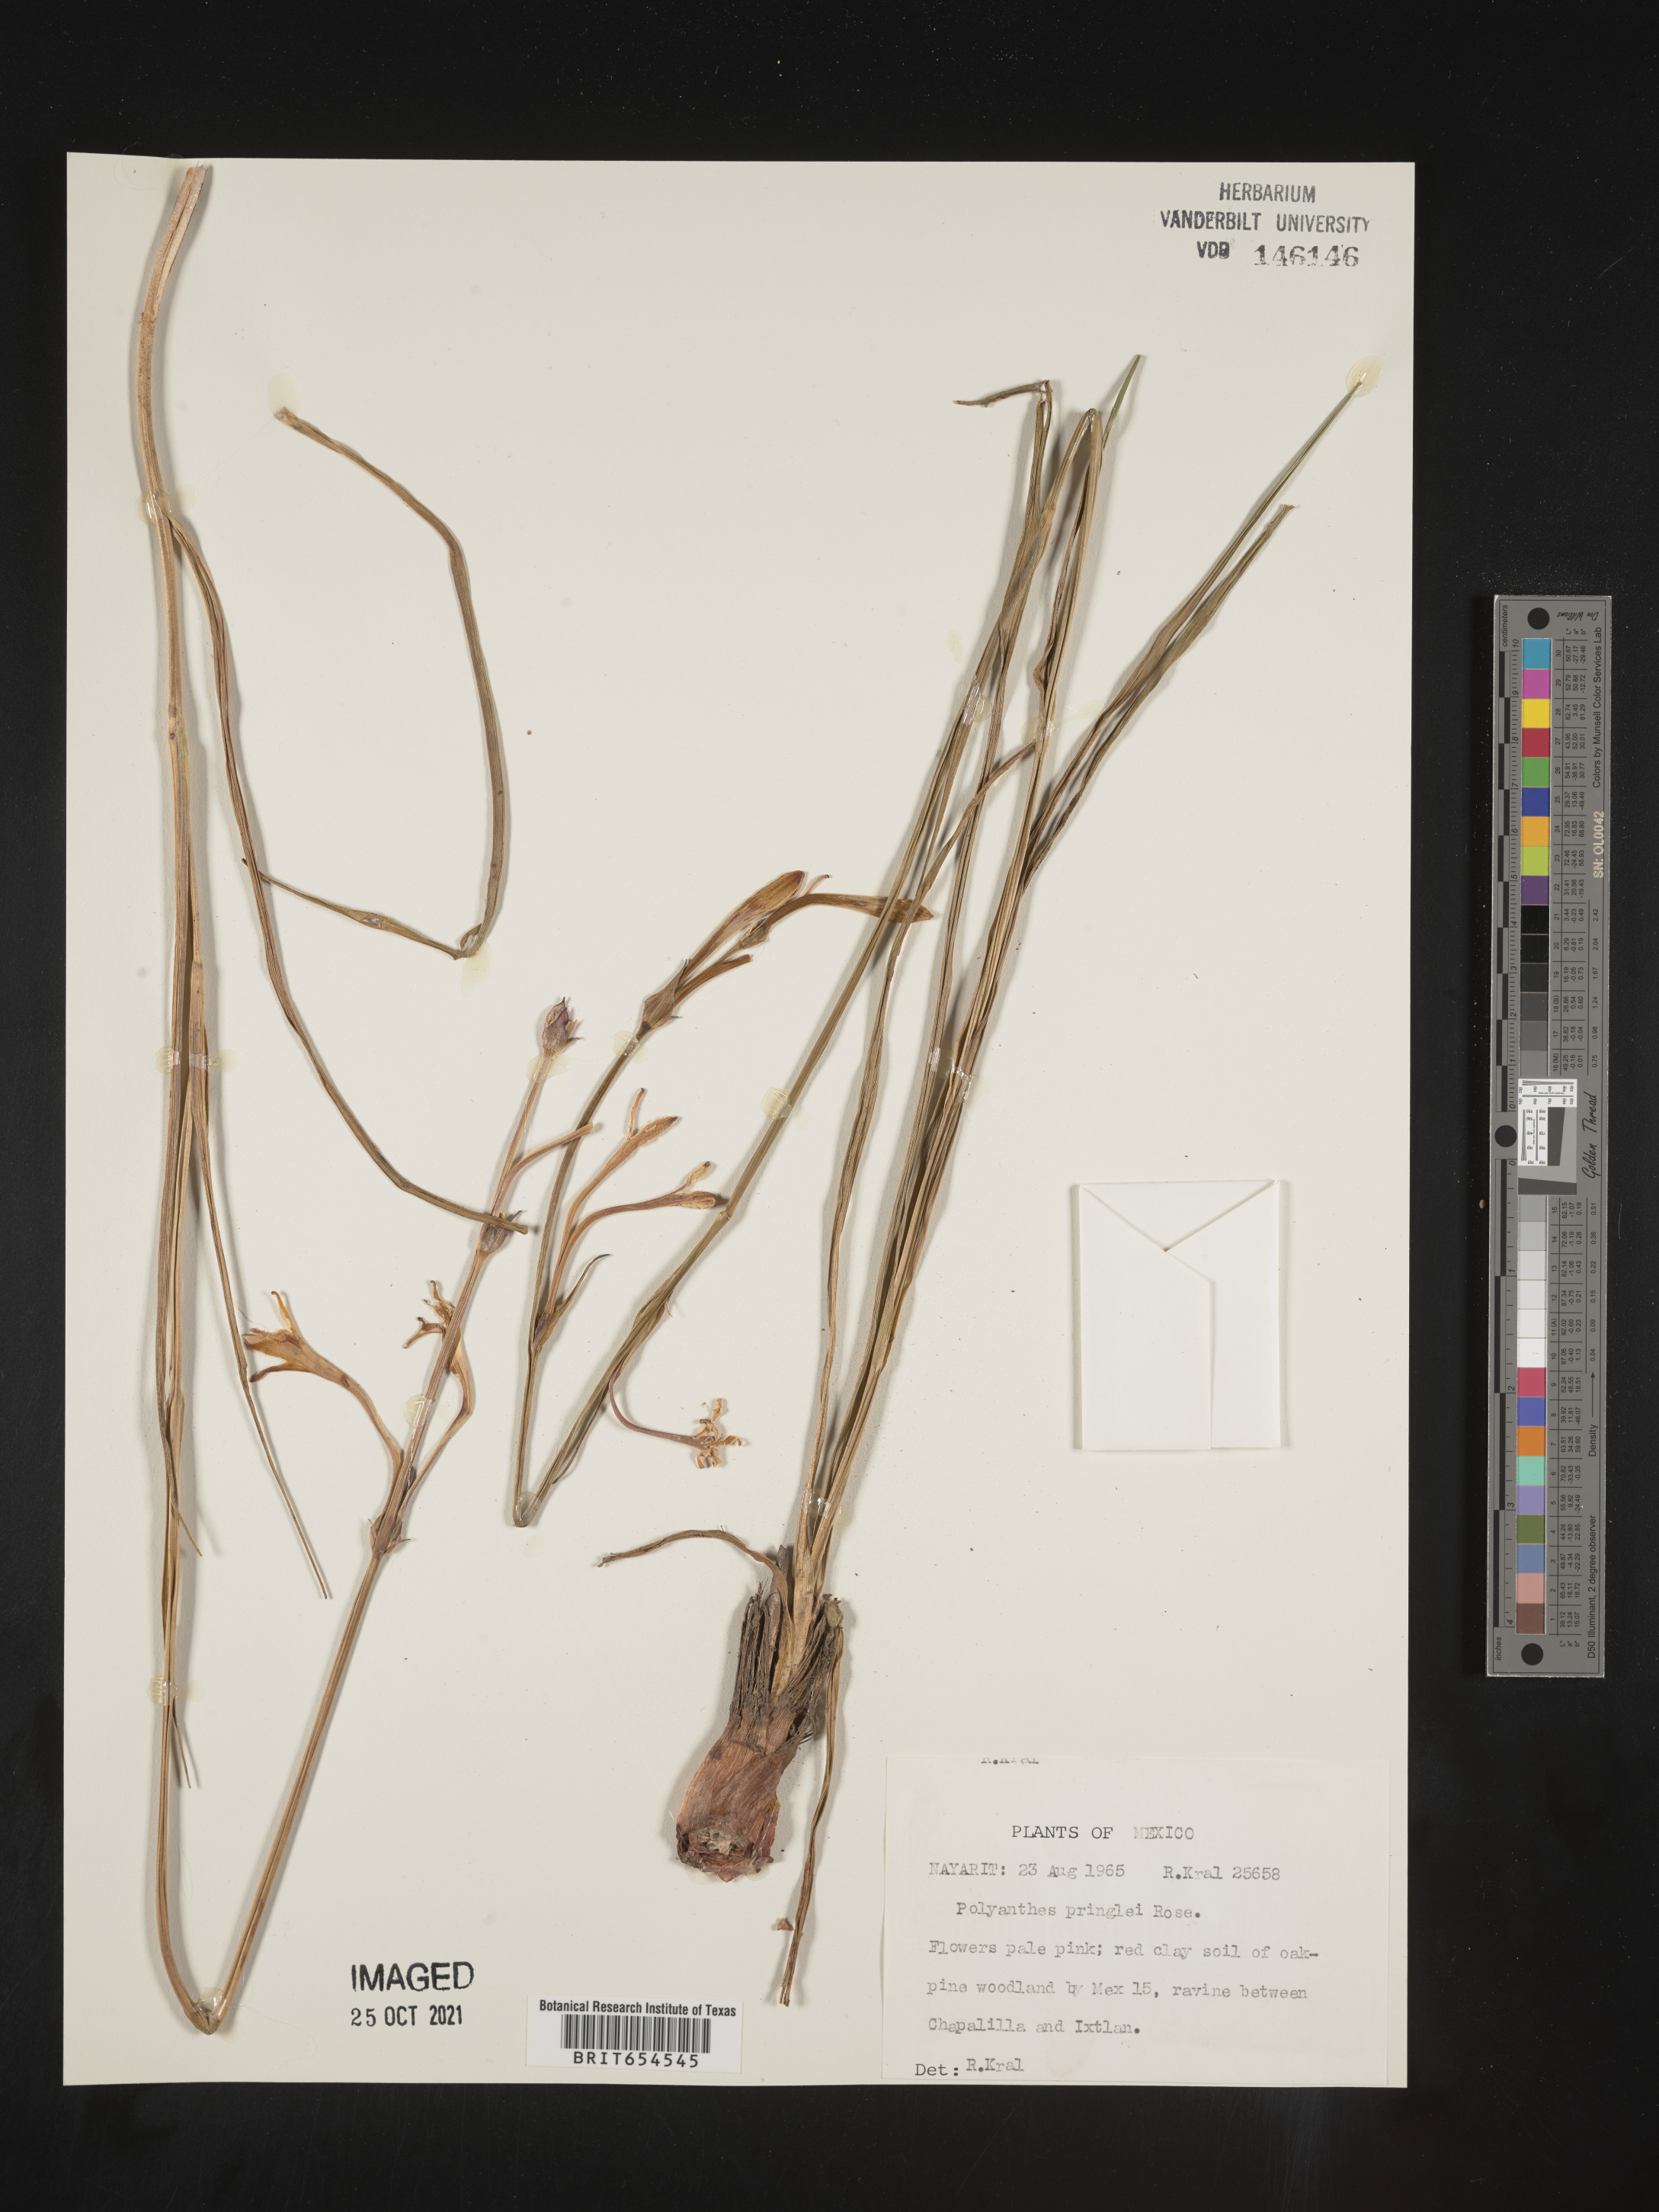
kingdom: Plantae
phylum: Tracheophyta
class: Liliopsida
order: Asparagales
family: Asparagaceae
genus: Agave
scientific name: Agave
